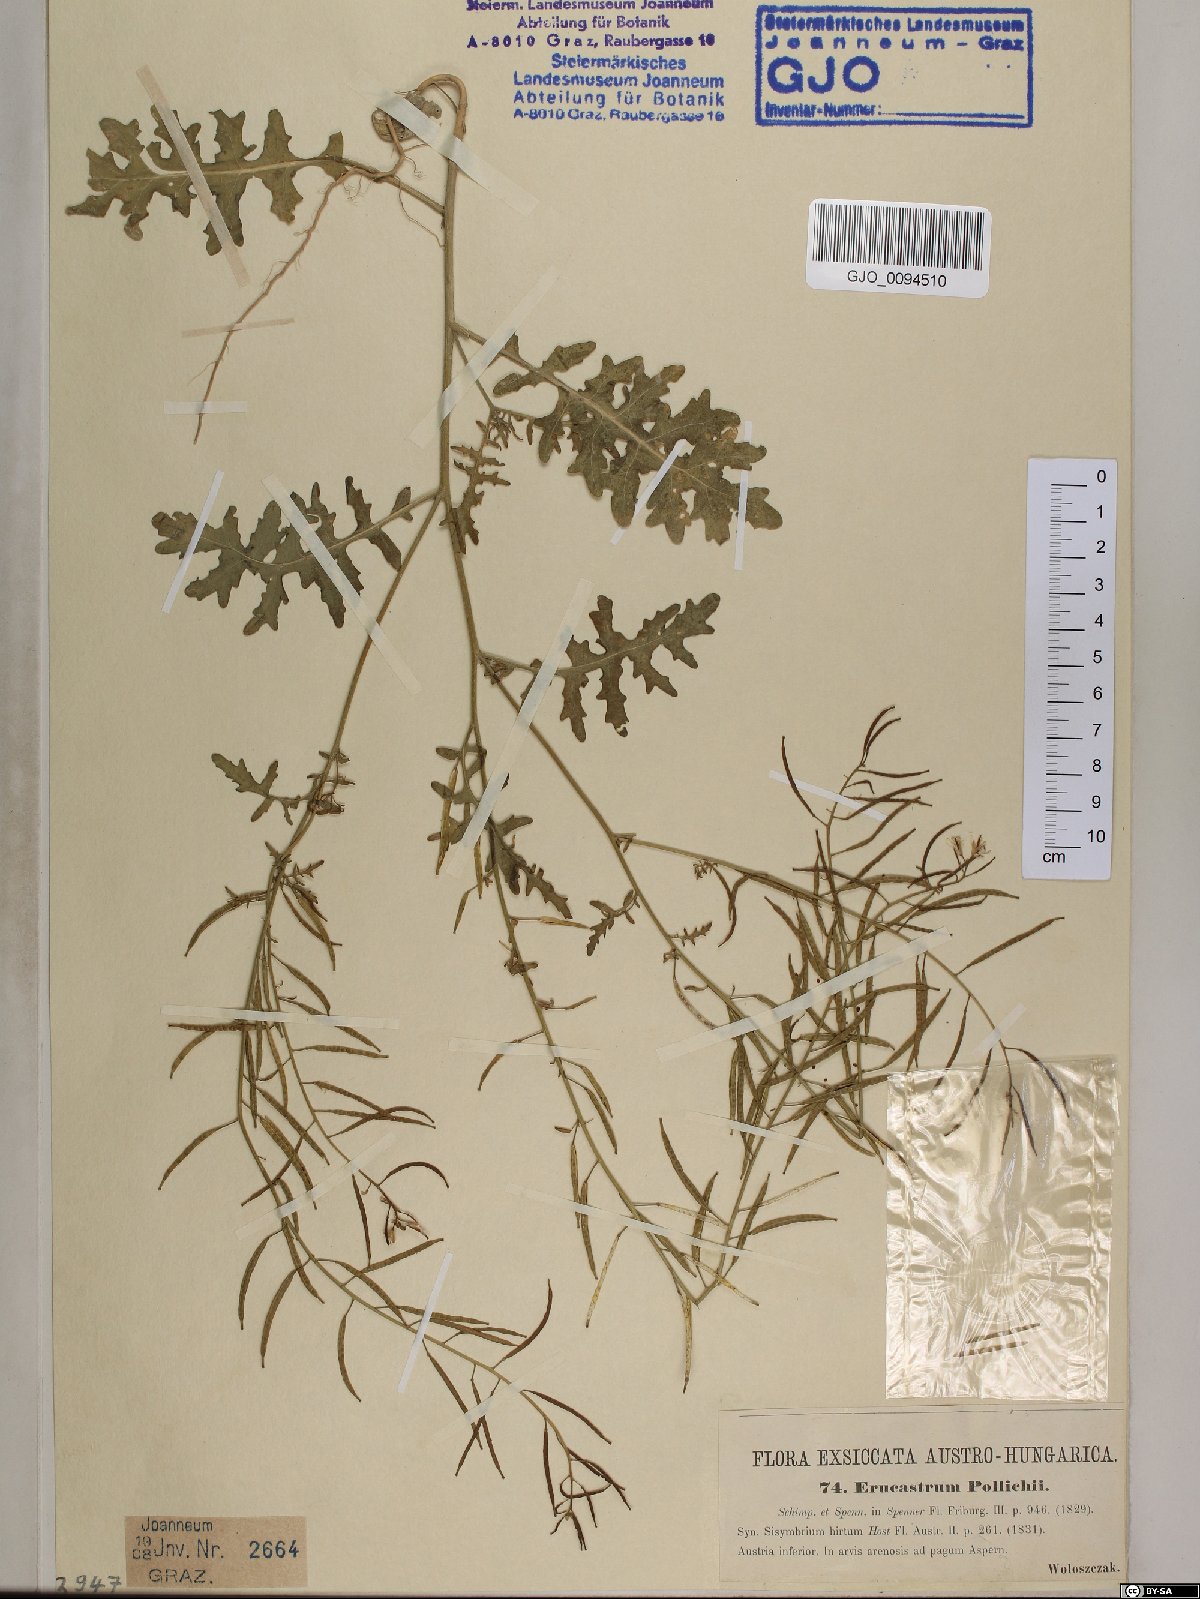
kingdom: Plantae
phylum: Tracheophyta
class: Magnoliopsida
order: Brassicales
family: Brassicaceae
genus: Erucastrum
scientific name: Erucastrum gallicum
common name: Hairy rocket
